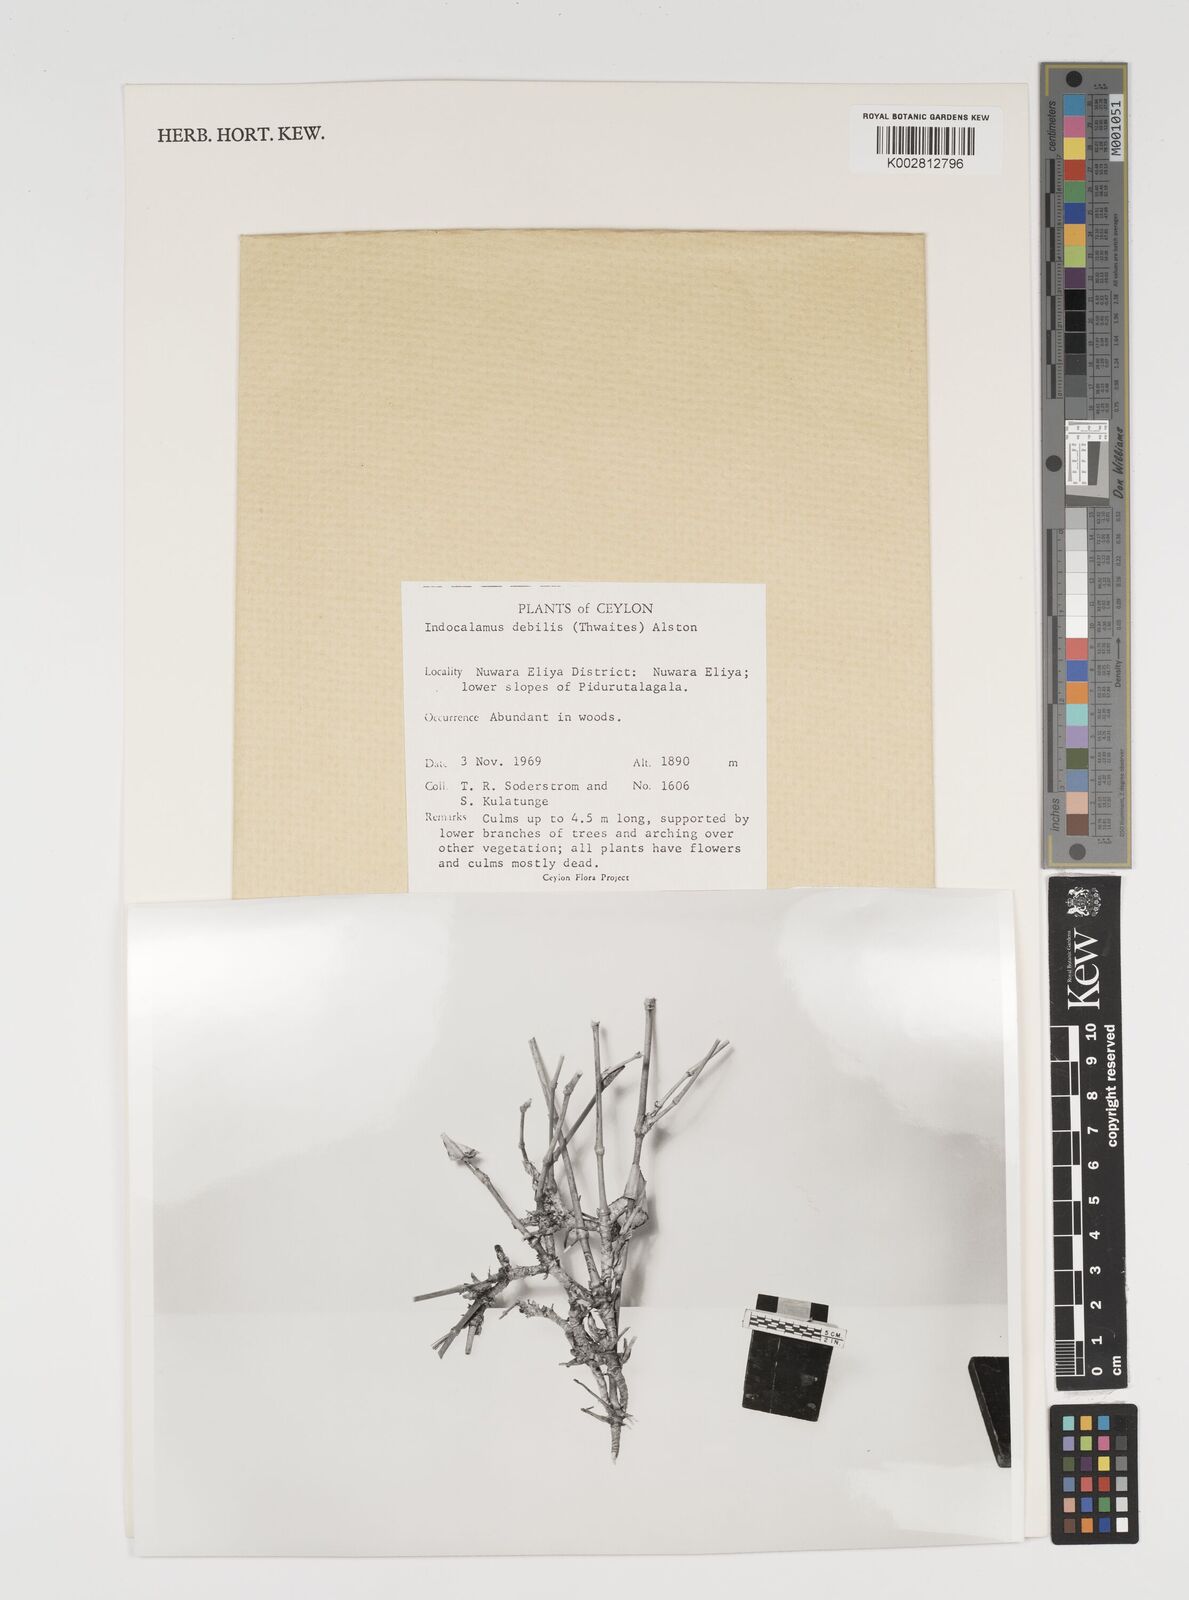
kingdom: Plantae
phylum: Tracheophyta
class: Liliopsida
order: Poales
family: Poaceae
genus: Kuruna
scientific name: Kuruna debilis
